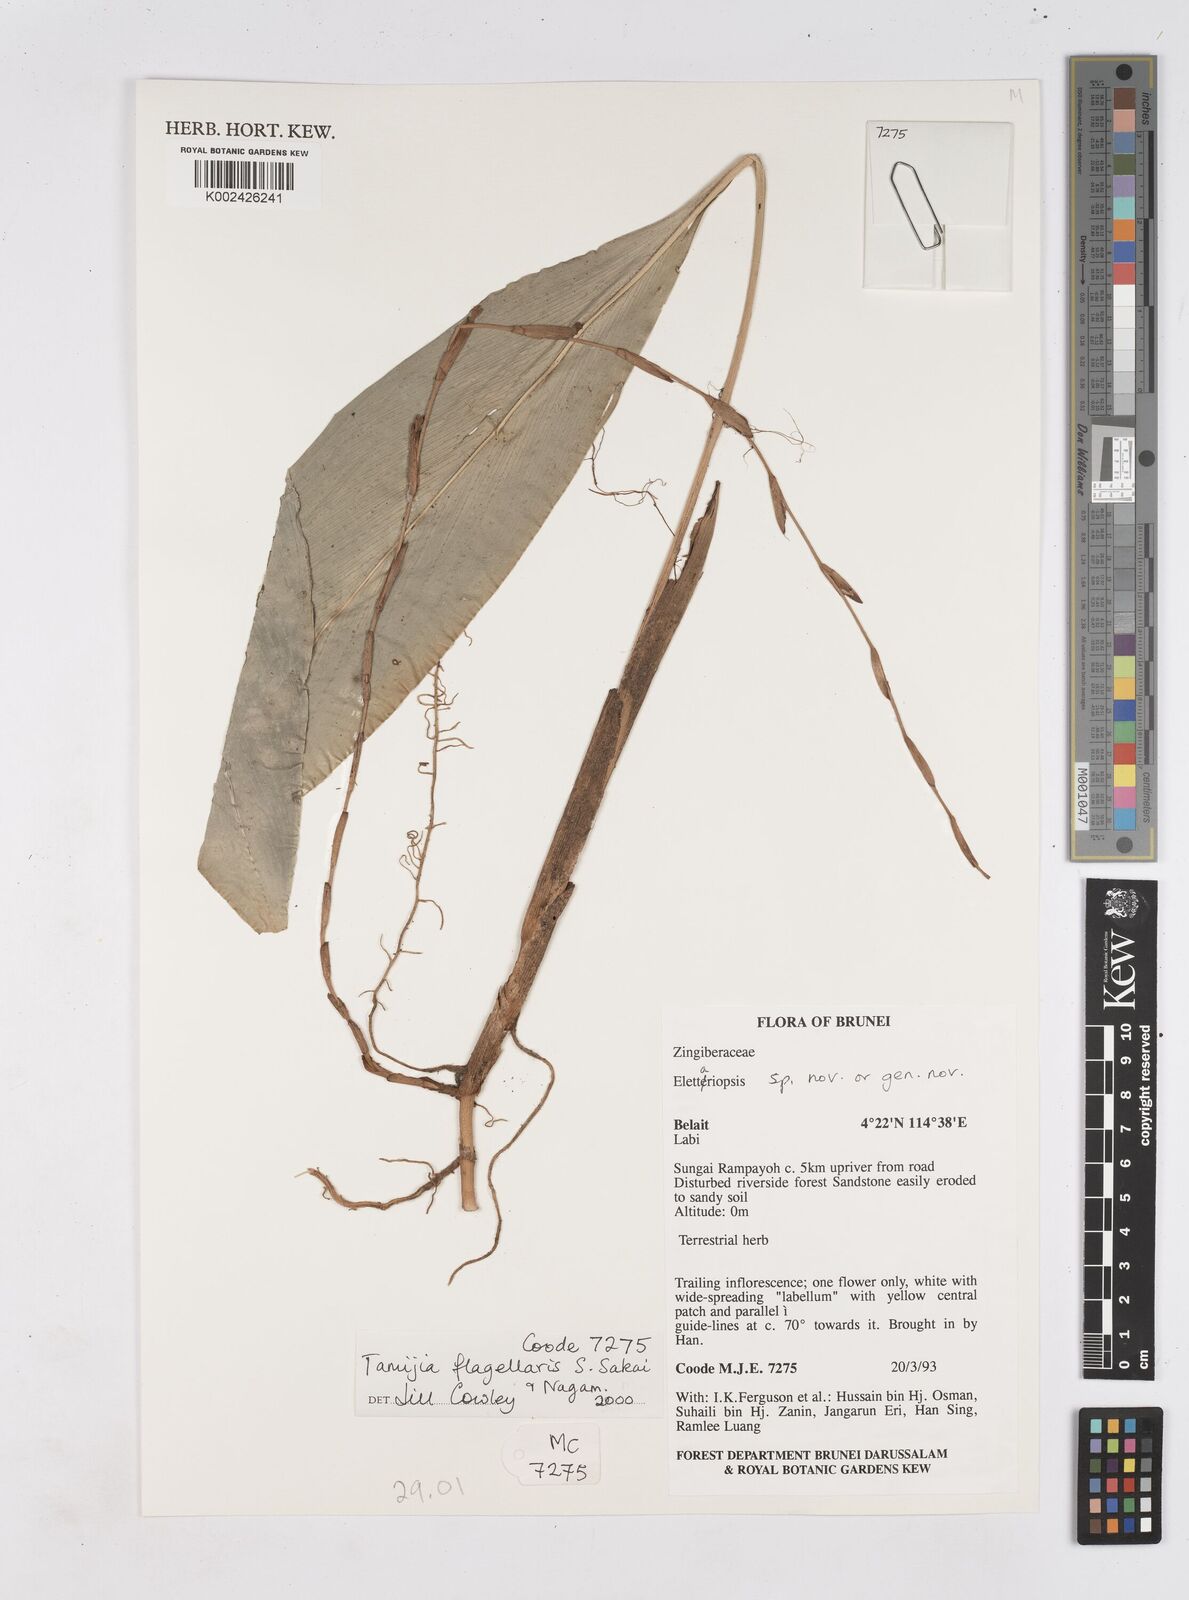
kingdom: Plantae
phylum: Tracheophyta
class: Liliopsida
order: Zingiberales
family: Zingiberaceae
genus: Tamijia
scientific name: Tamijia flagellaris
